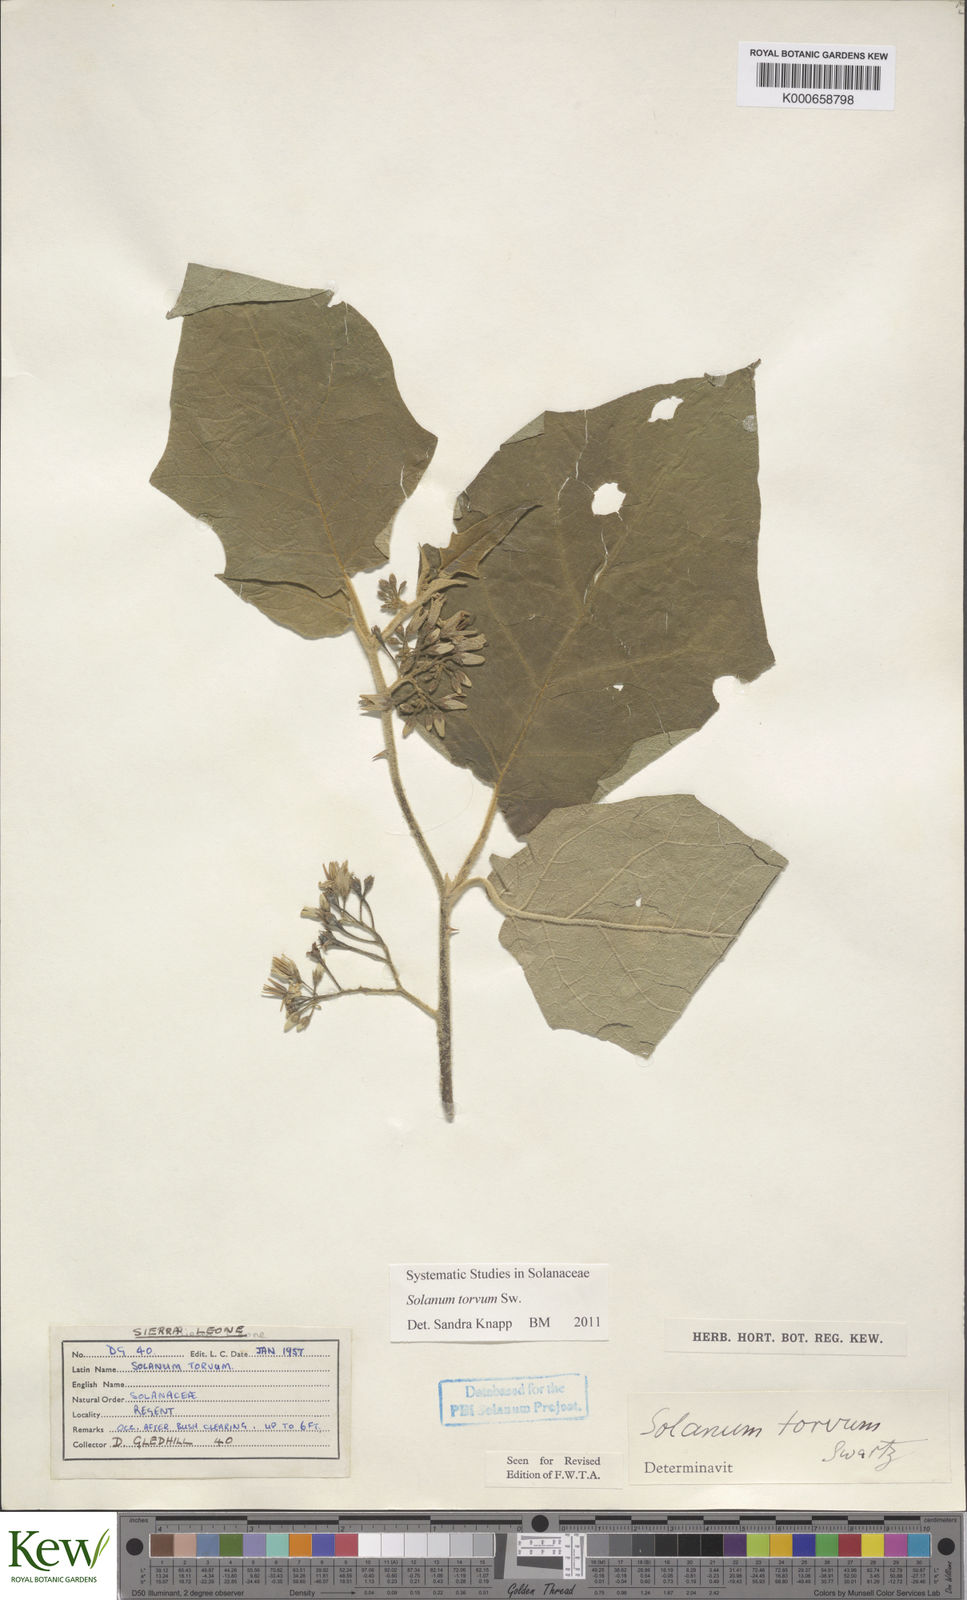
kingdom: Plantae
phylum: Tracheophyta
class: Magnoliopsida
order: Solanales
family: Solanaceae
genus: Solanum
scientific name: Solanum torvum
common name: Turkey berry
